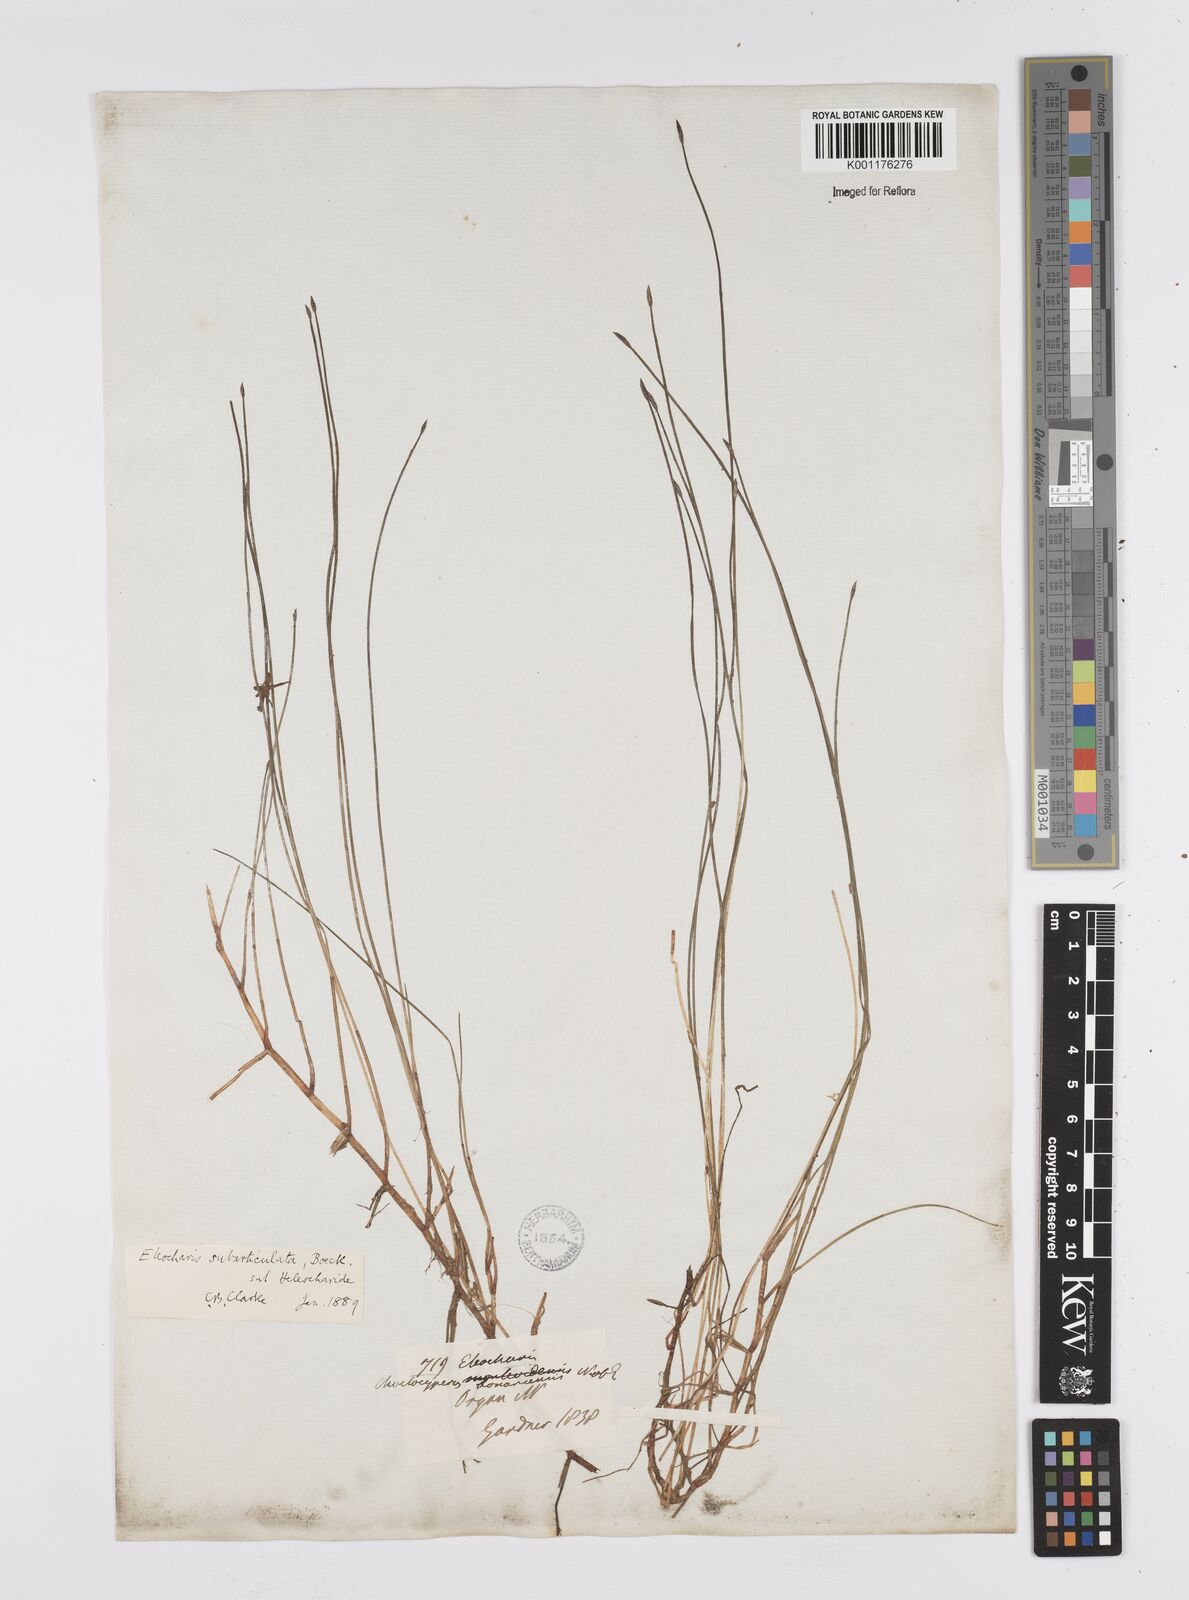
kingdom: Plantae
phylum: Tracheophyta
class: Liliopsida
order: Poales
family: Cyperaceae
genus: Eleocharis
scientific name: Eleocharis subarticulata
